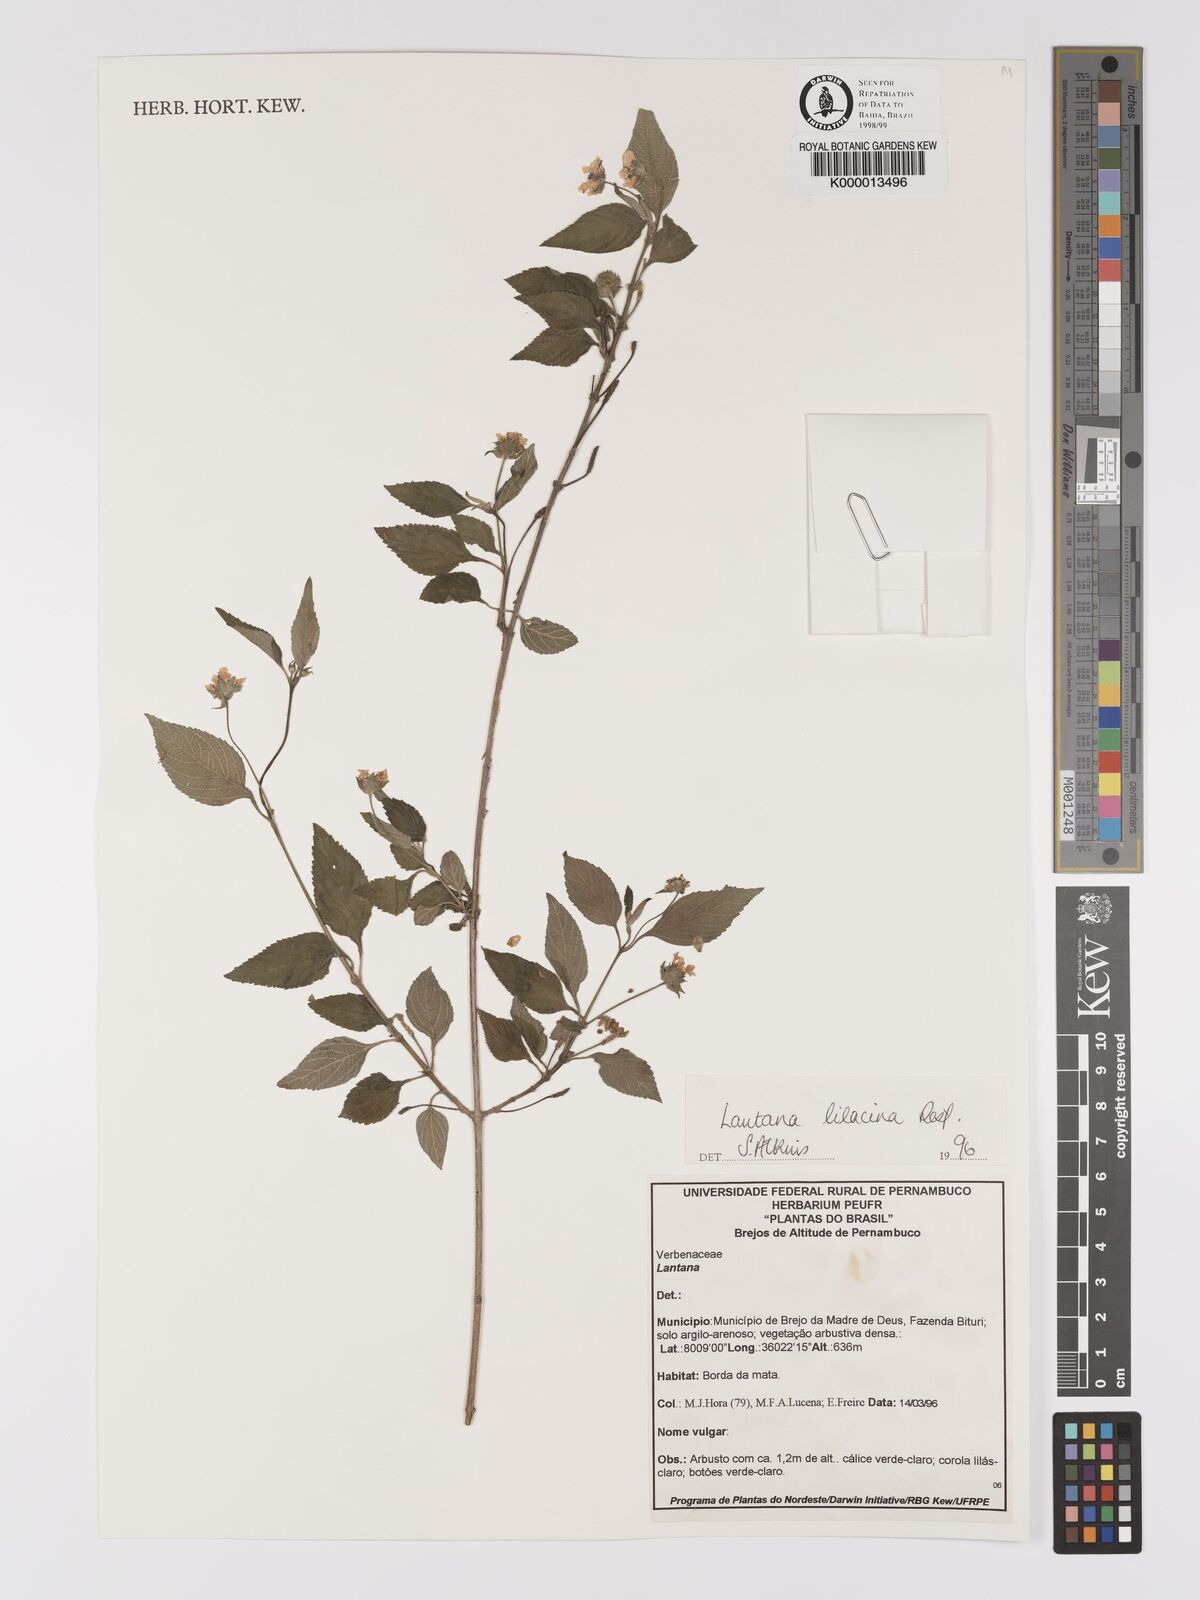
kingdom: Plantae
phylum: Tracheophyta
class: Magnoliopsida
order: Lamiales
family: Verbenaceae
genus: Lantana
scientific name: Lantana fucata
